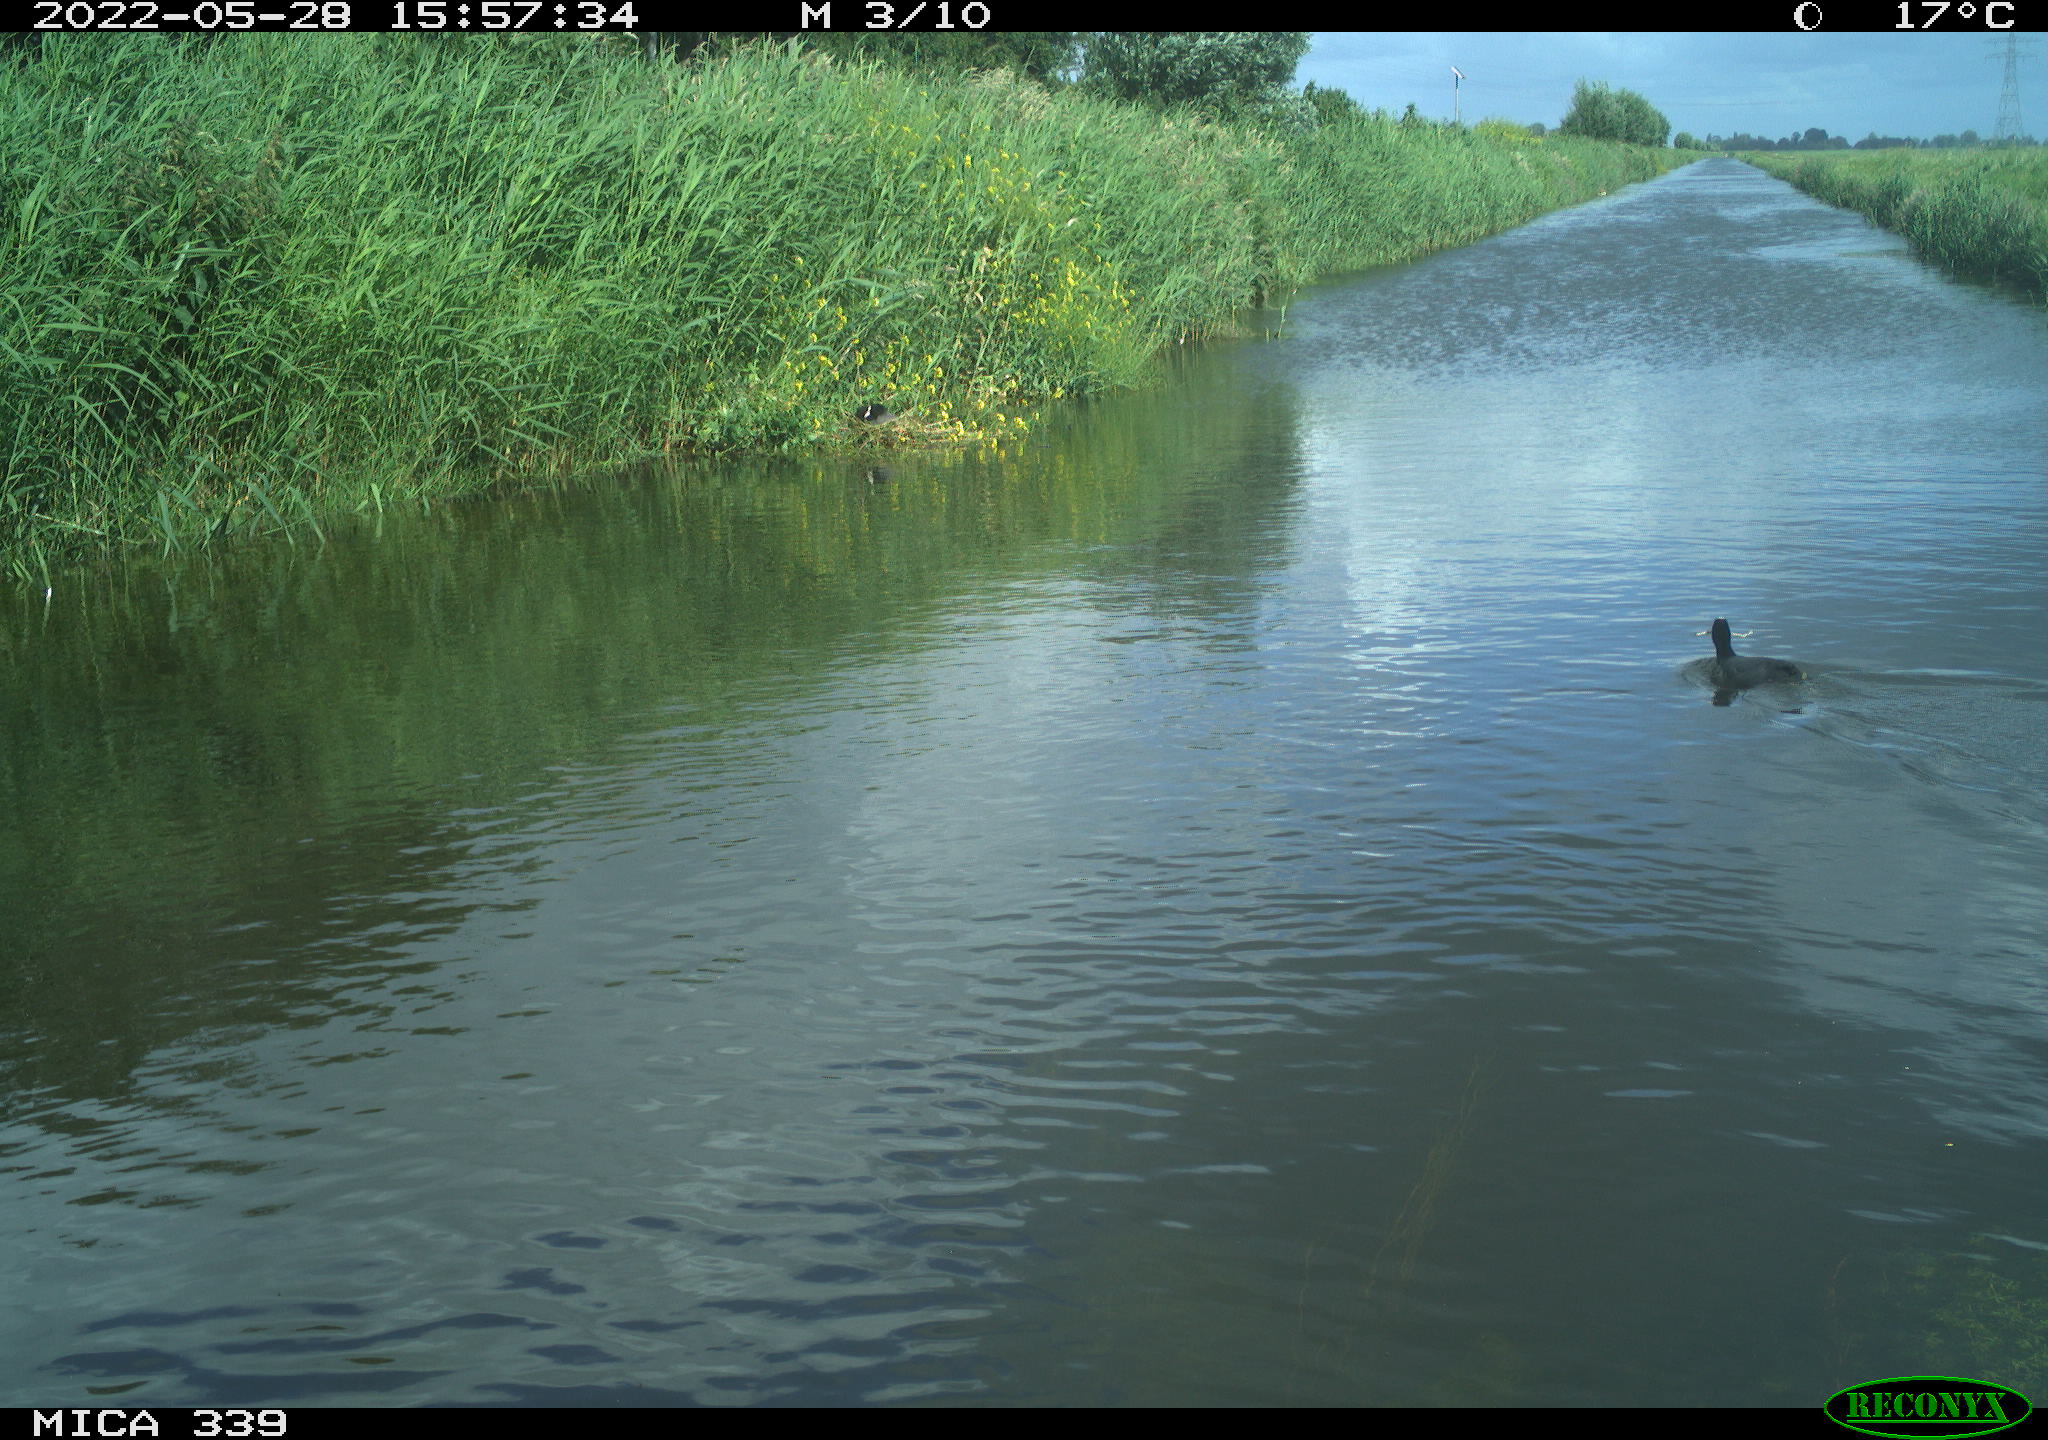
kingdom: Animalia
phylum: Chordata
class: Aves
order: Gruiformes
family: Rallidae
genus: Fulica
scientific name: Fulica atra
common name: Eurasian coot
